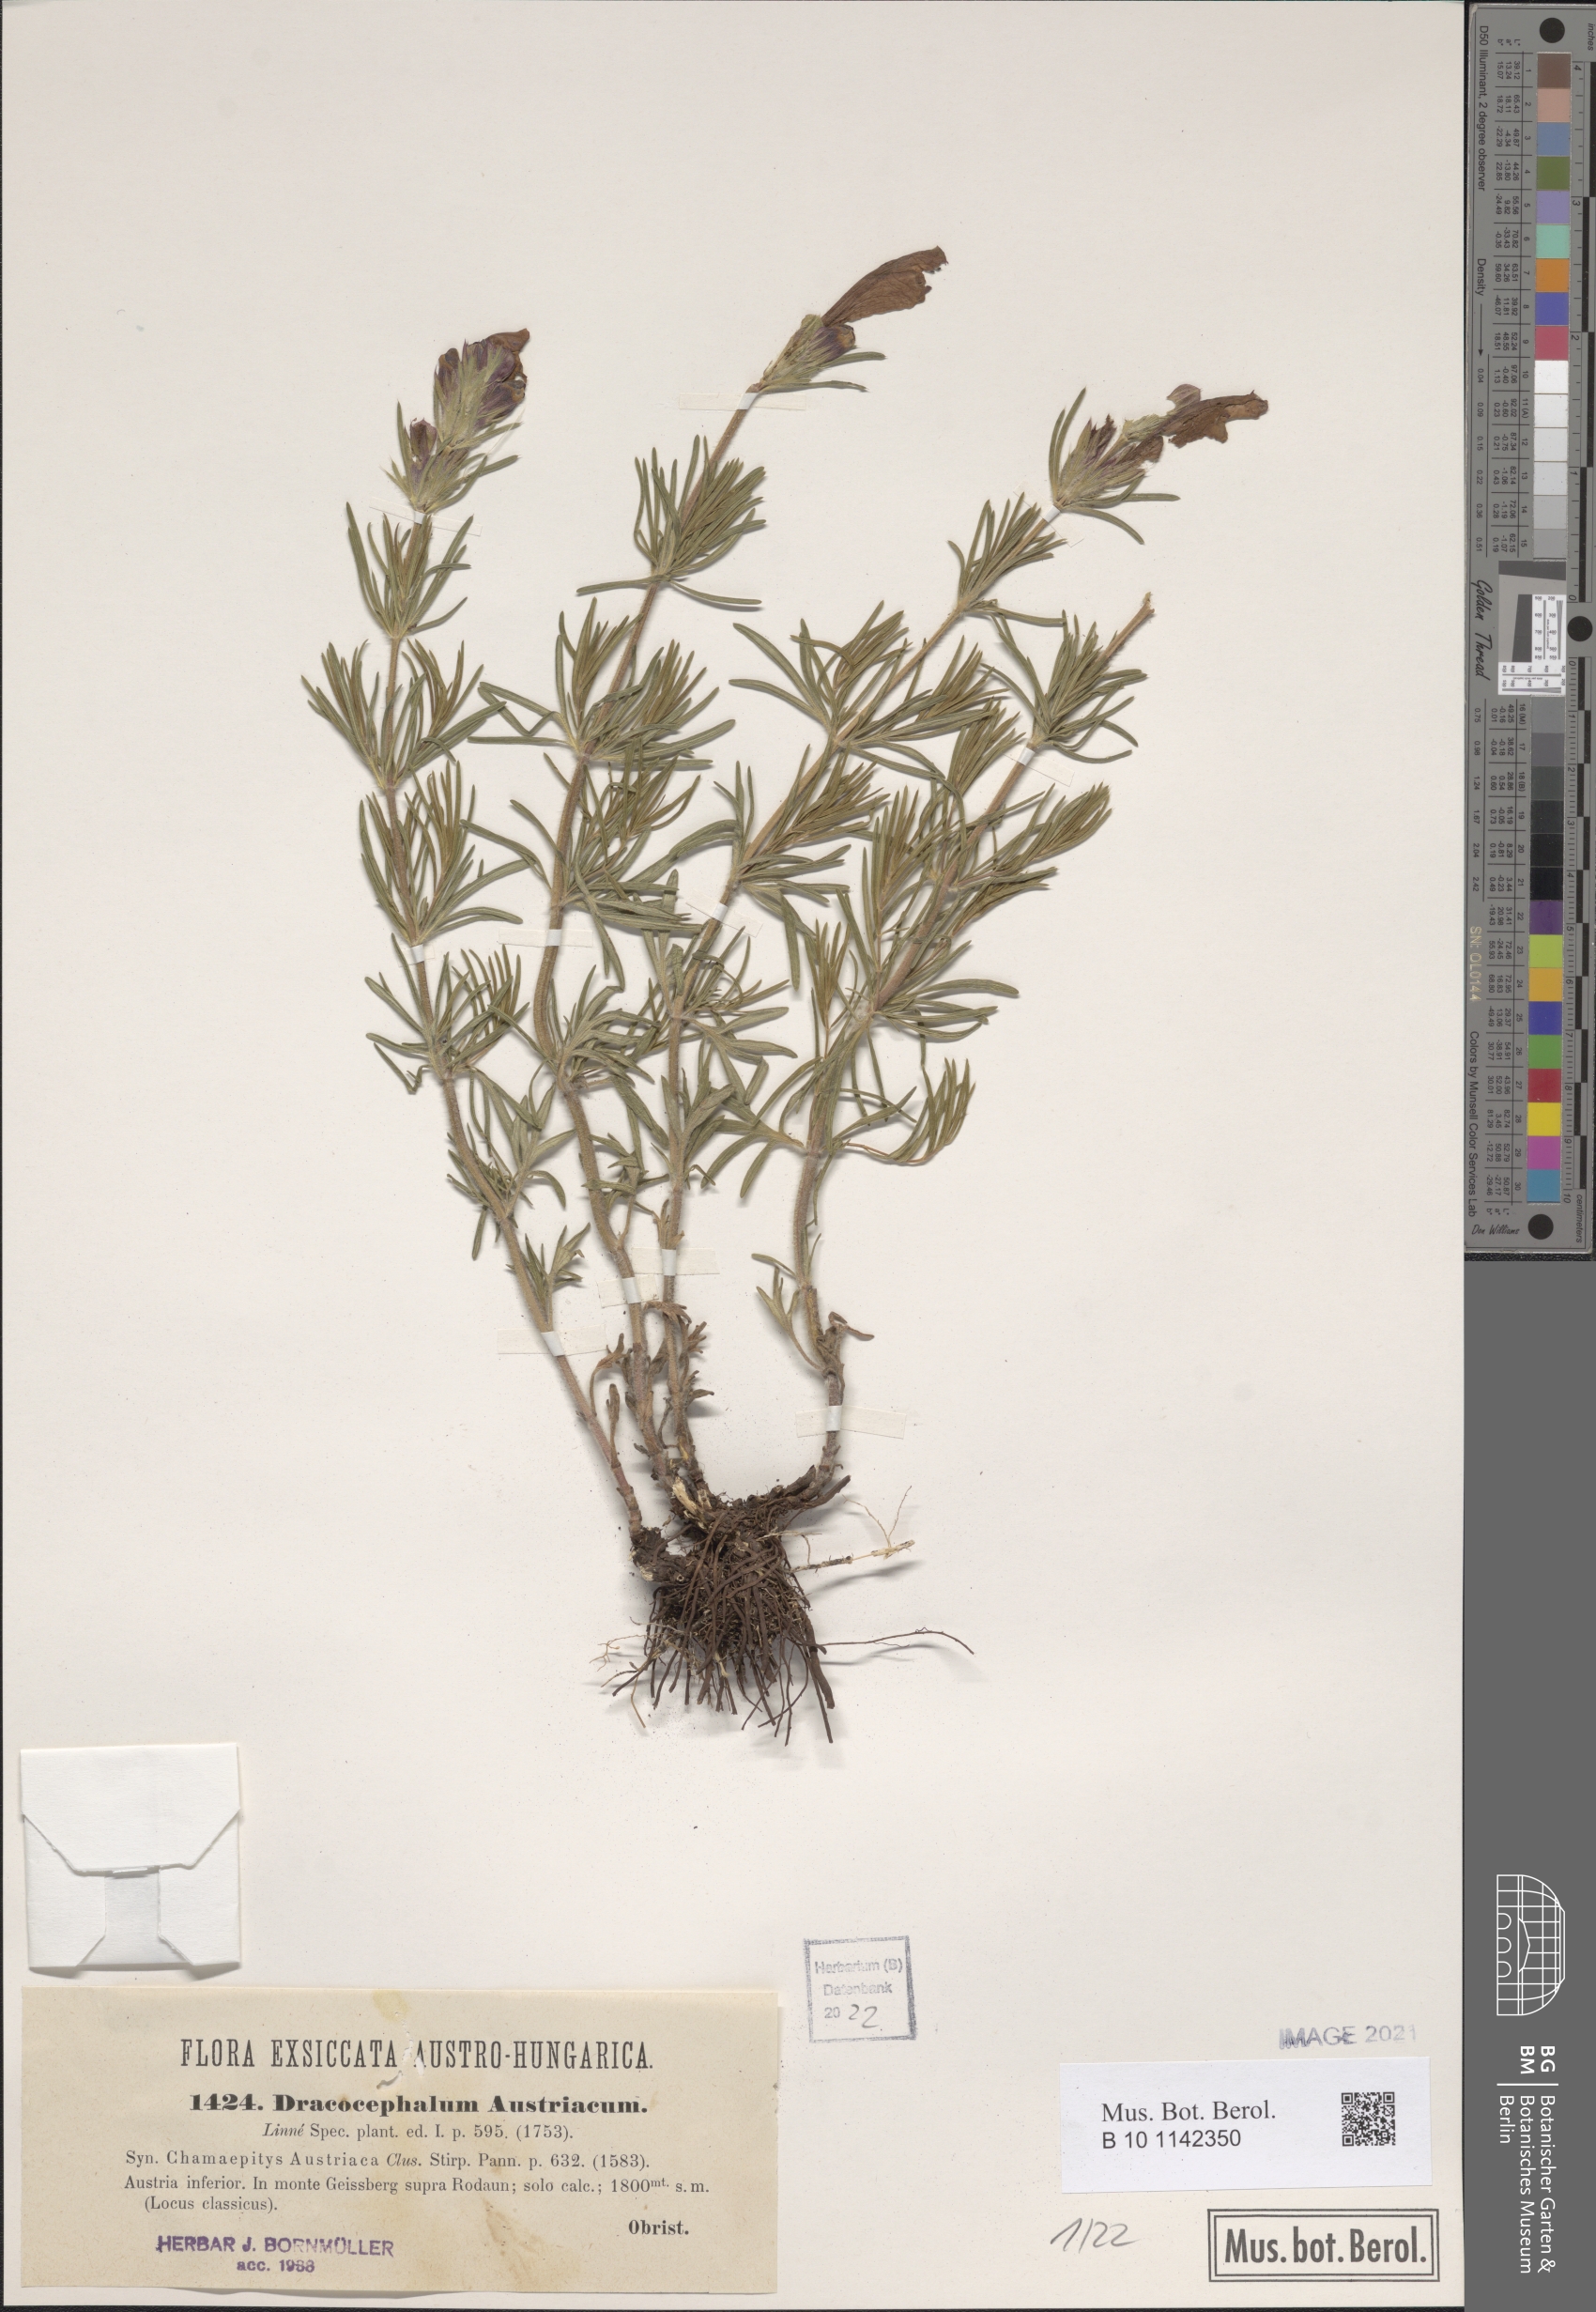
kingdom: Plantae
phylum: Tracheophyta
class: Magnoliopsida
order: Lamiales
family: Lamiaceae
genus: Dracocephalum
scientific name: Dracocephalum austriacum
